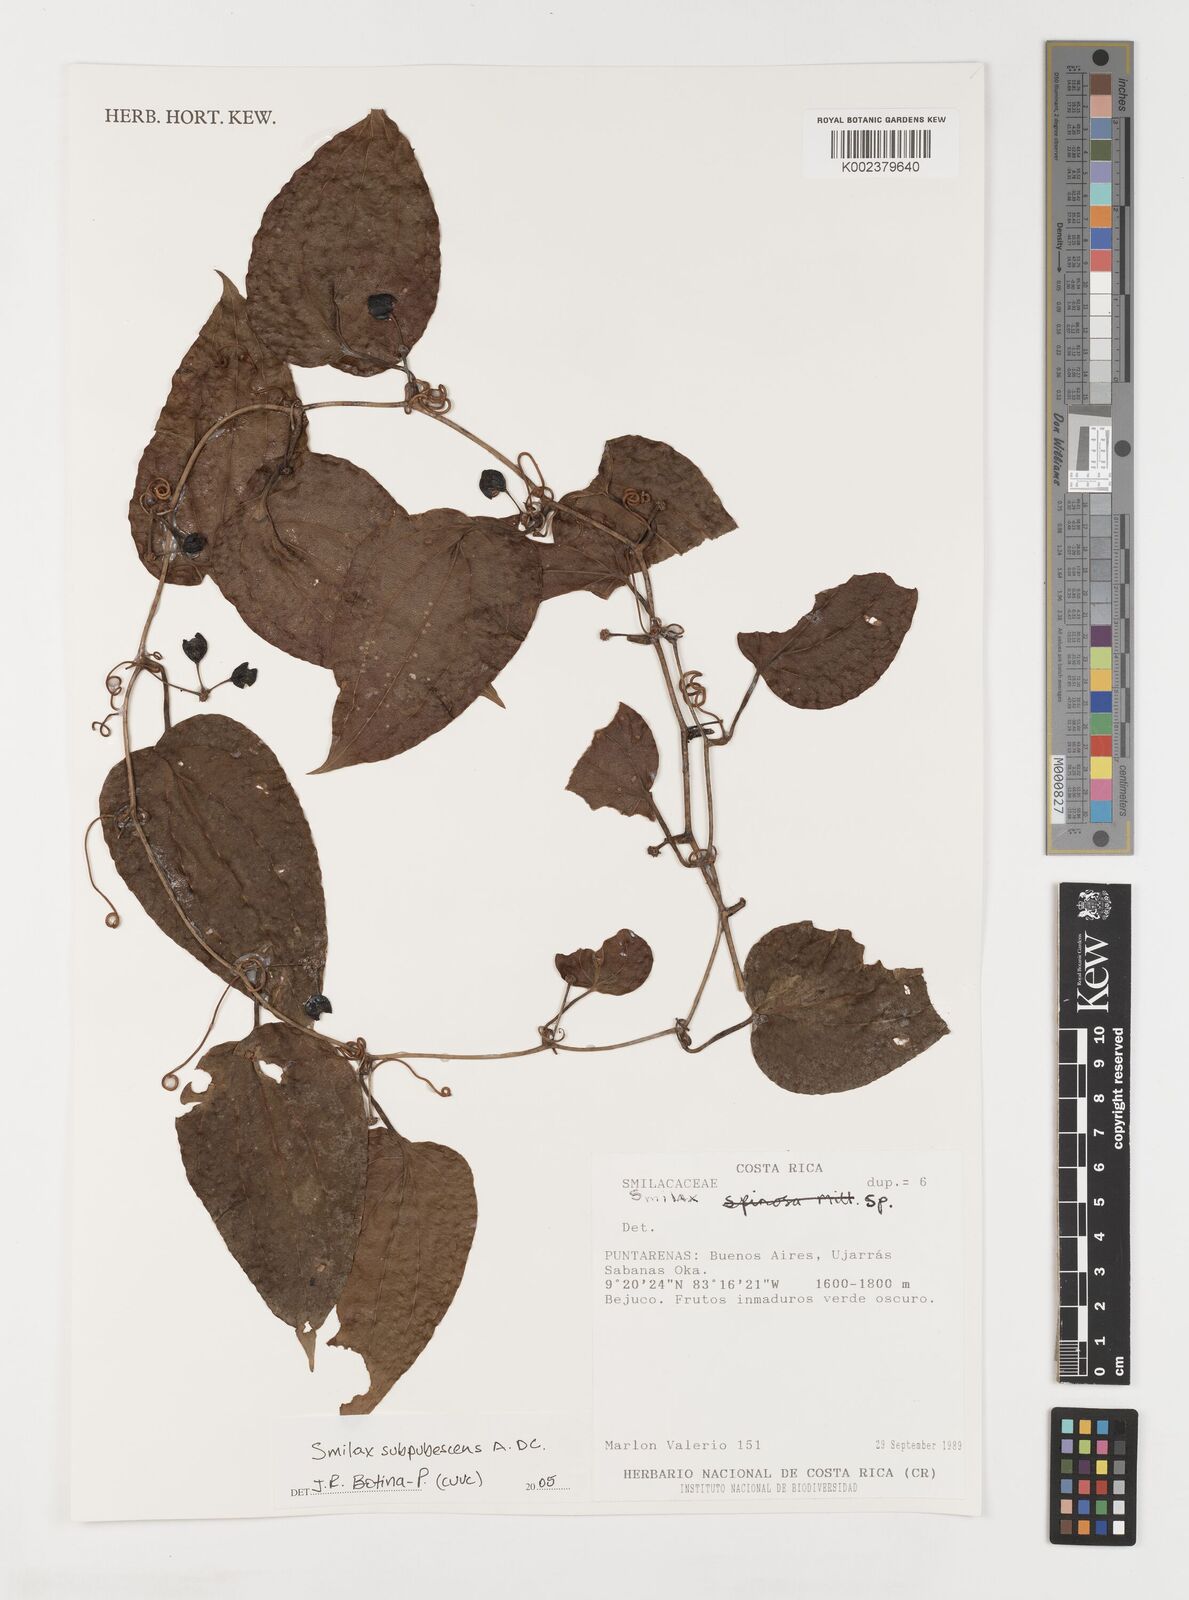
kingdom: Plantae
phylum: Tracheophyta
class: Liliopsida
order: Liliales
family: Smilacaceae
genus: Smilax
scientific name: Smilax subpubescens
